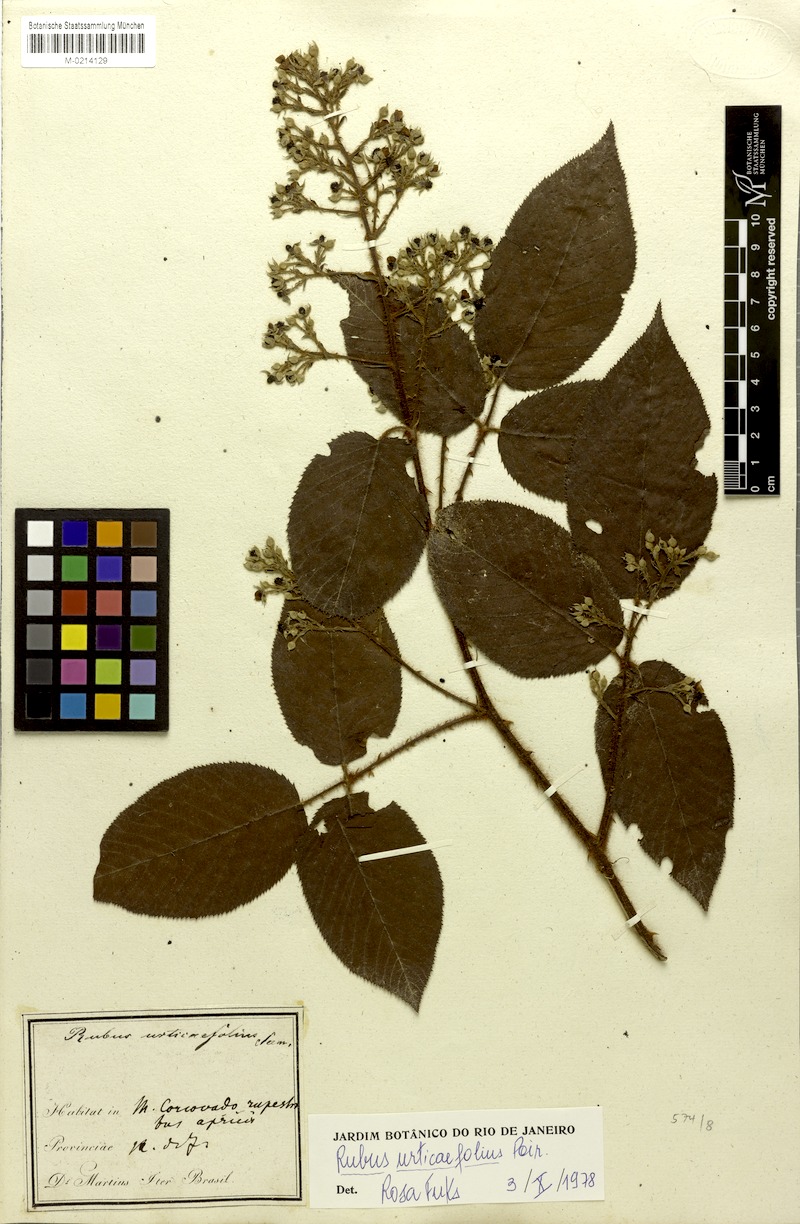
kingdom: Plantae
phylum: Tracheophyta
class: Magnoliopsida
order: Rosales
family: Rosaceae
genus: Rubus
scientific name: Rubus urticifolius
